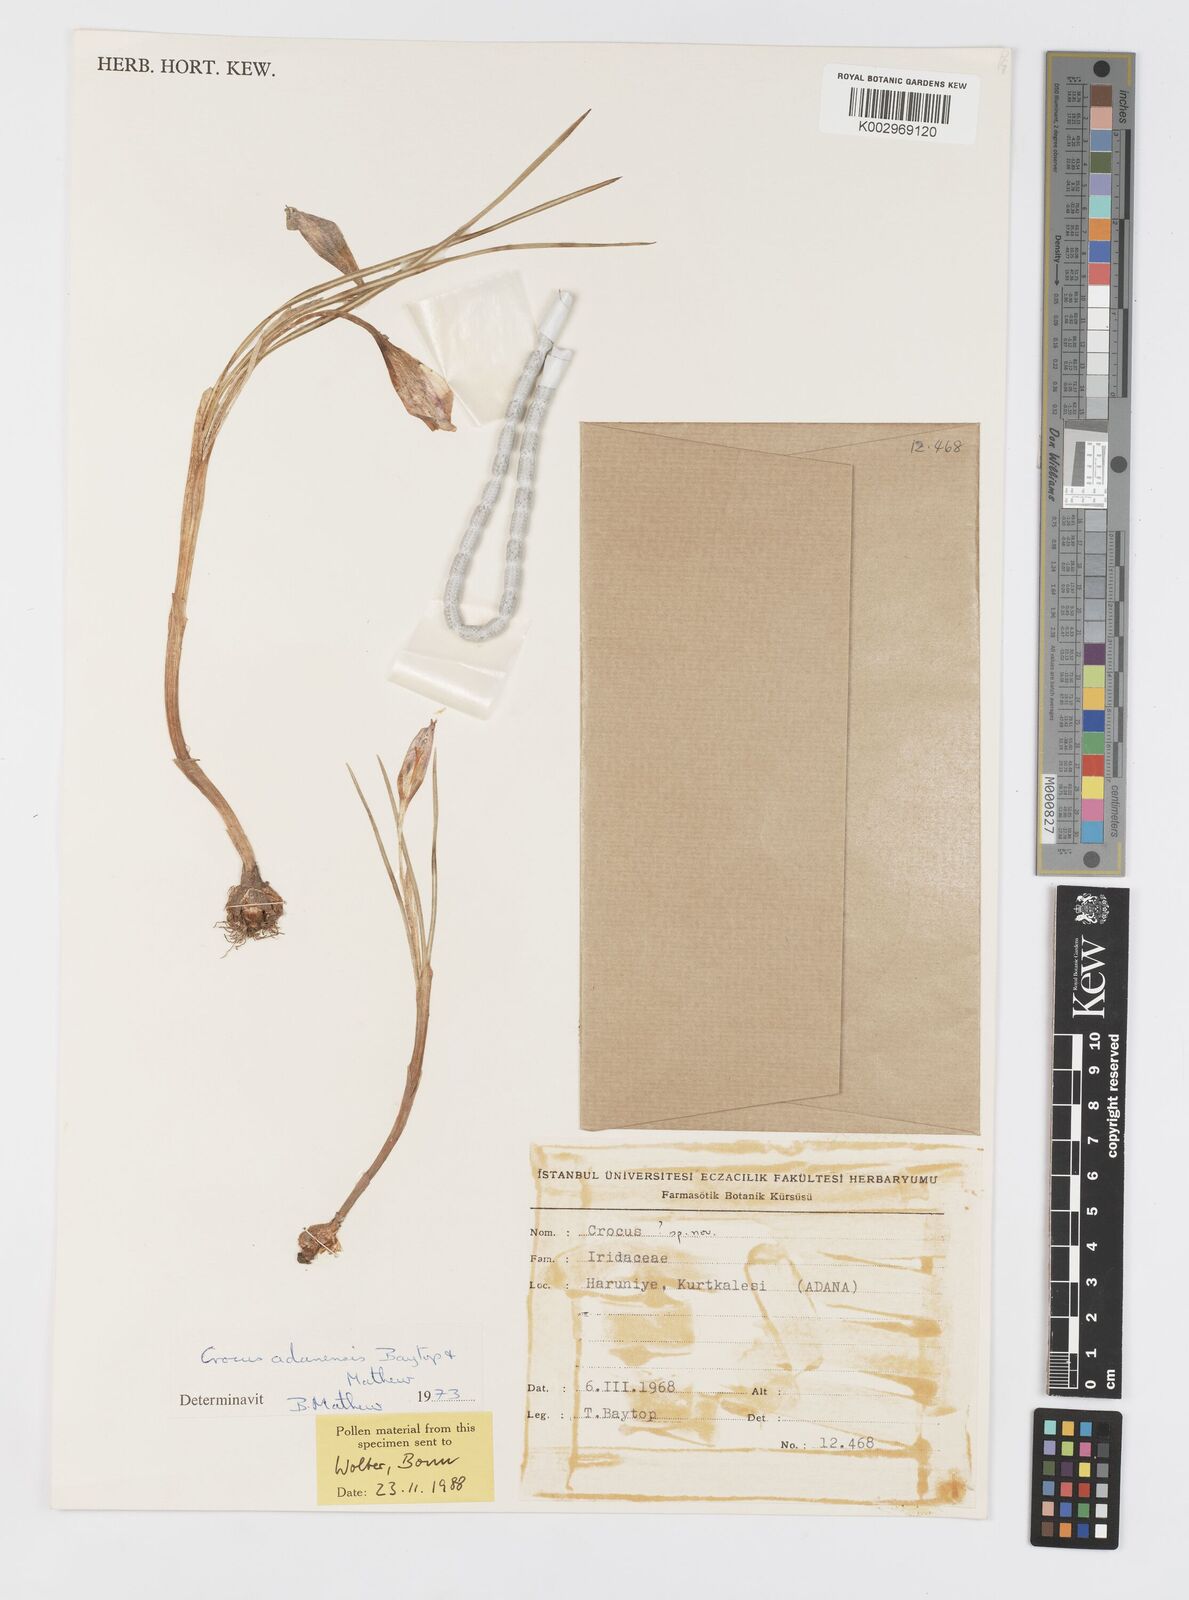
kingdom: Plantae
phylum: Tracheophyta
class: Liliopsida
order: Asparagales
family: Iridaceae
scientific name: Iridaceae
